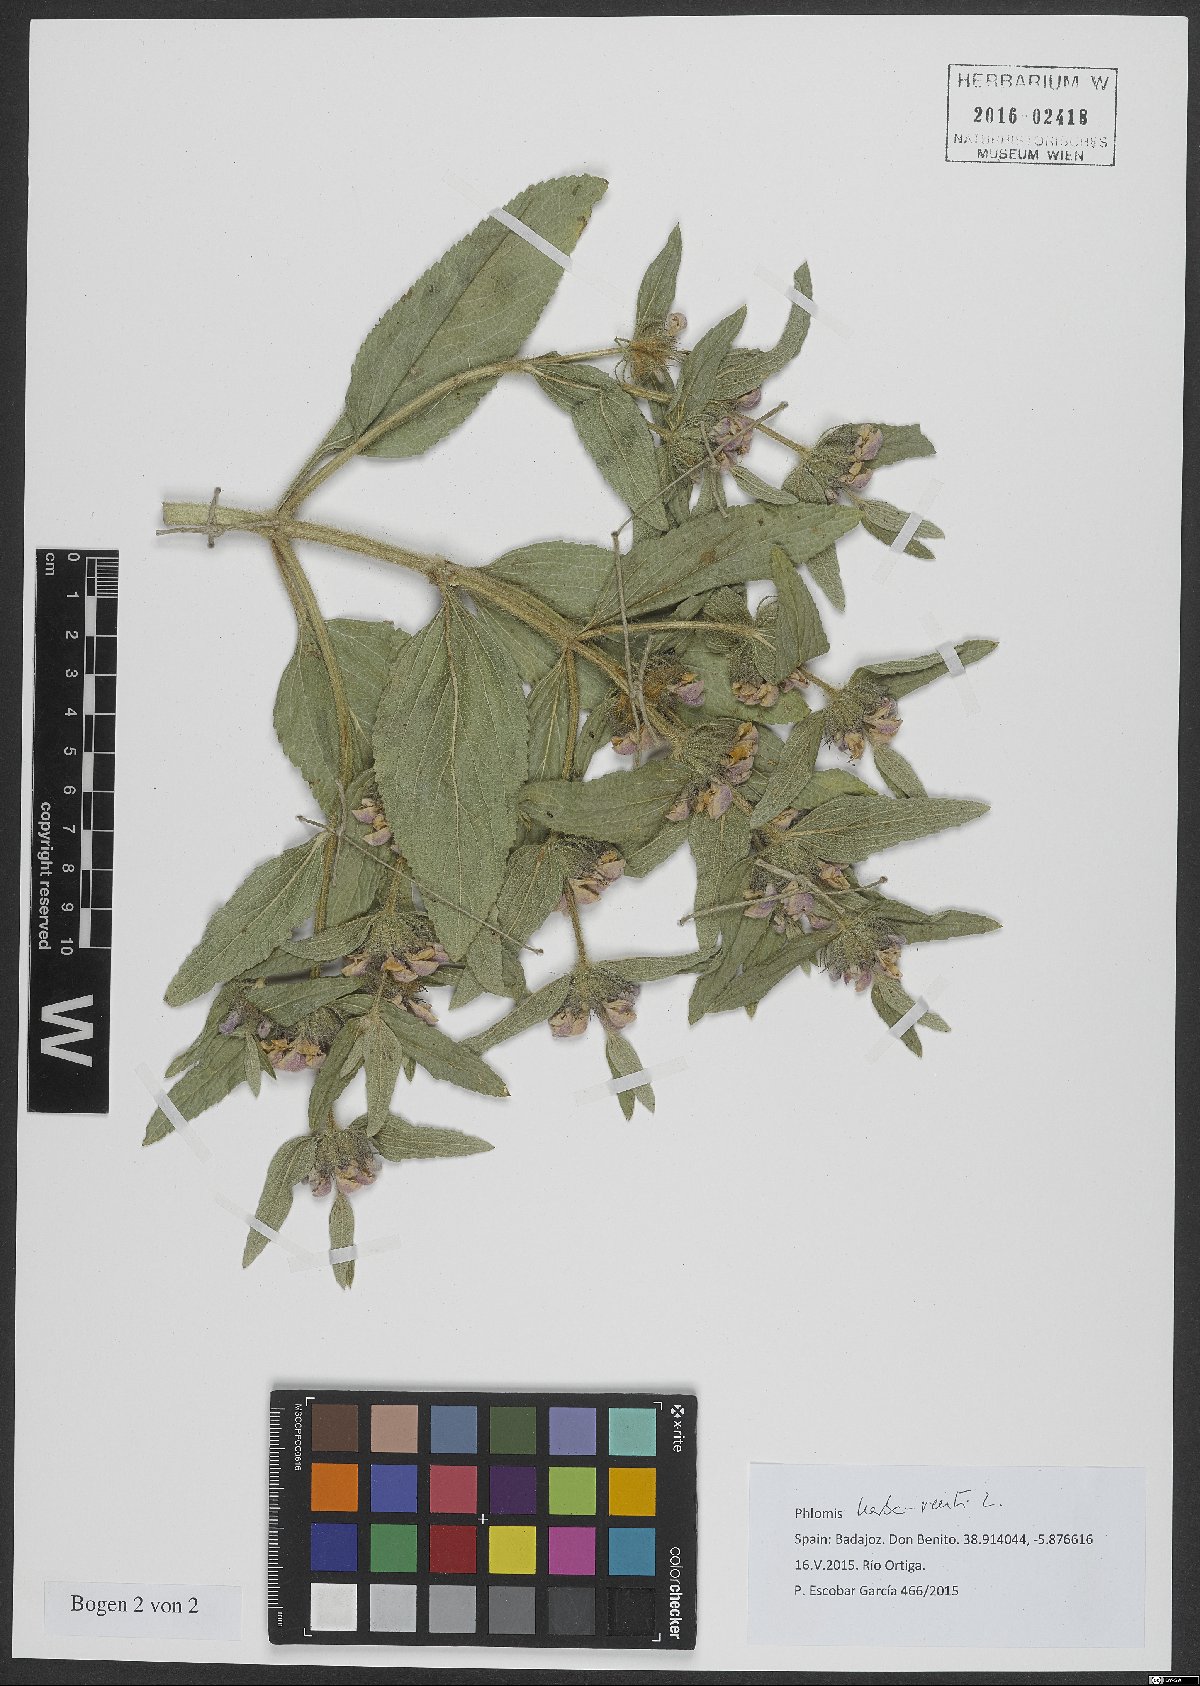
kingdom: Plantae
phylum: Tracheophyta
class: Magnoliopsida
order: Lamiales
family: Lamiaceae
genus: Phlomis
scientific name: Phlomis herba-venti
